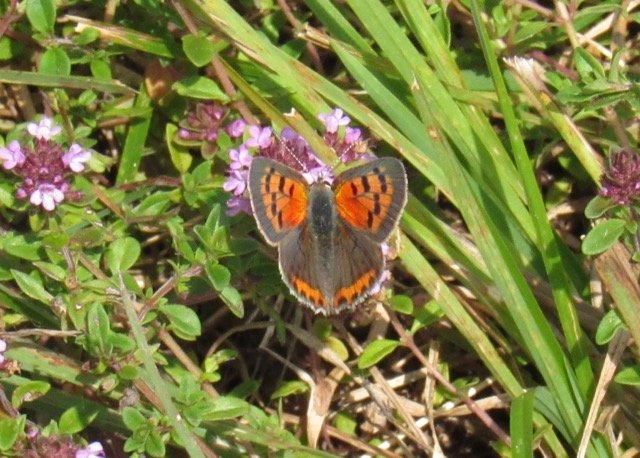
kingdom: Animalia
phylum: Arthropoda
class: Insecta
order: Lepidoptera
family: Lycaenidae
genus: Lycaena
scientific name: Lycaena phlaeas
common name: American Copper
